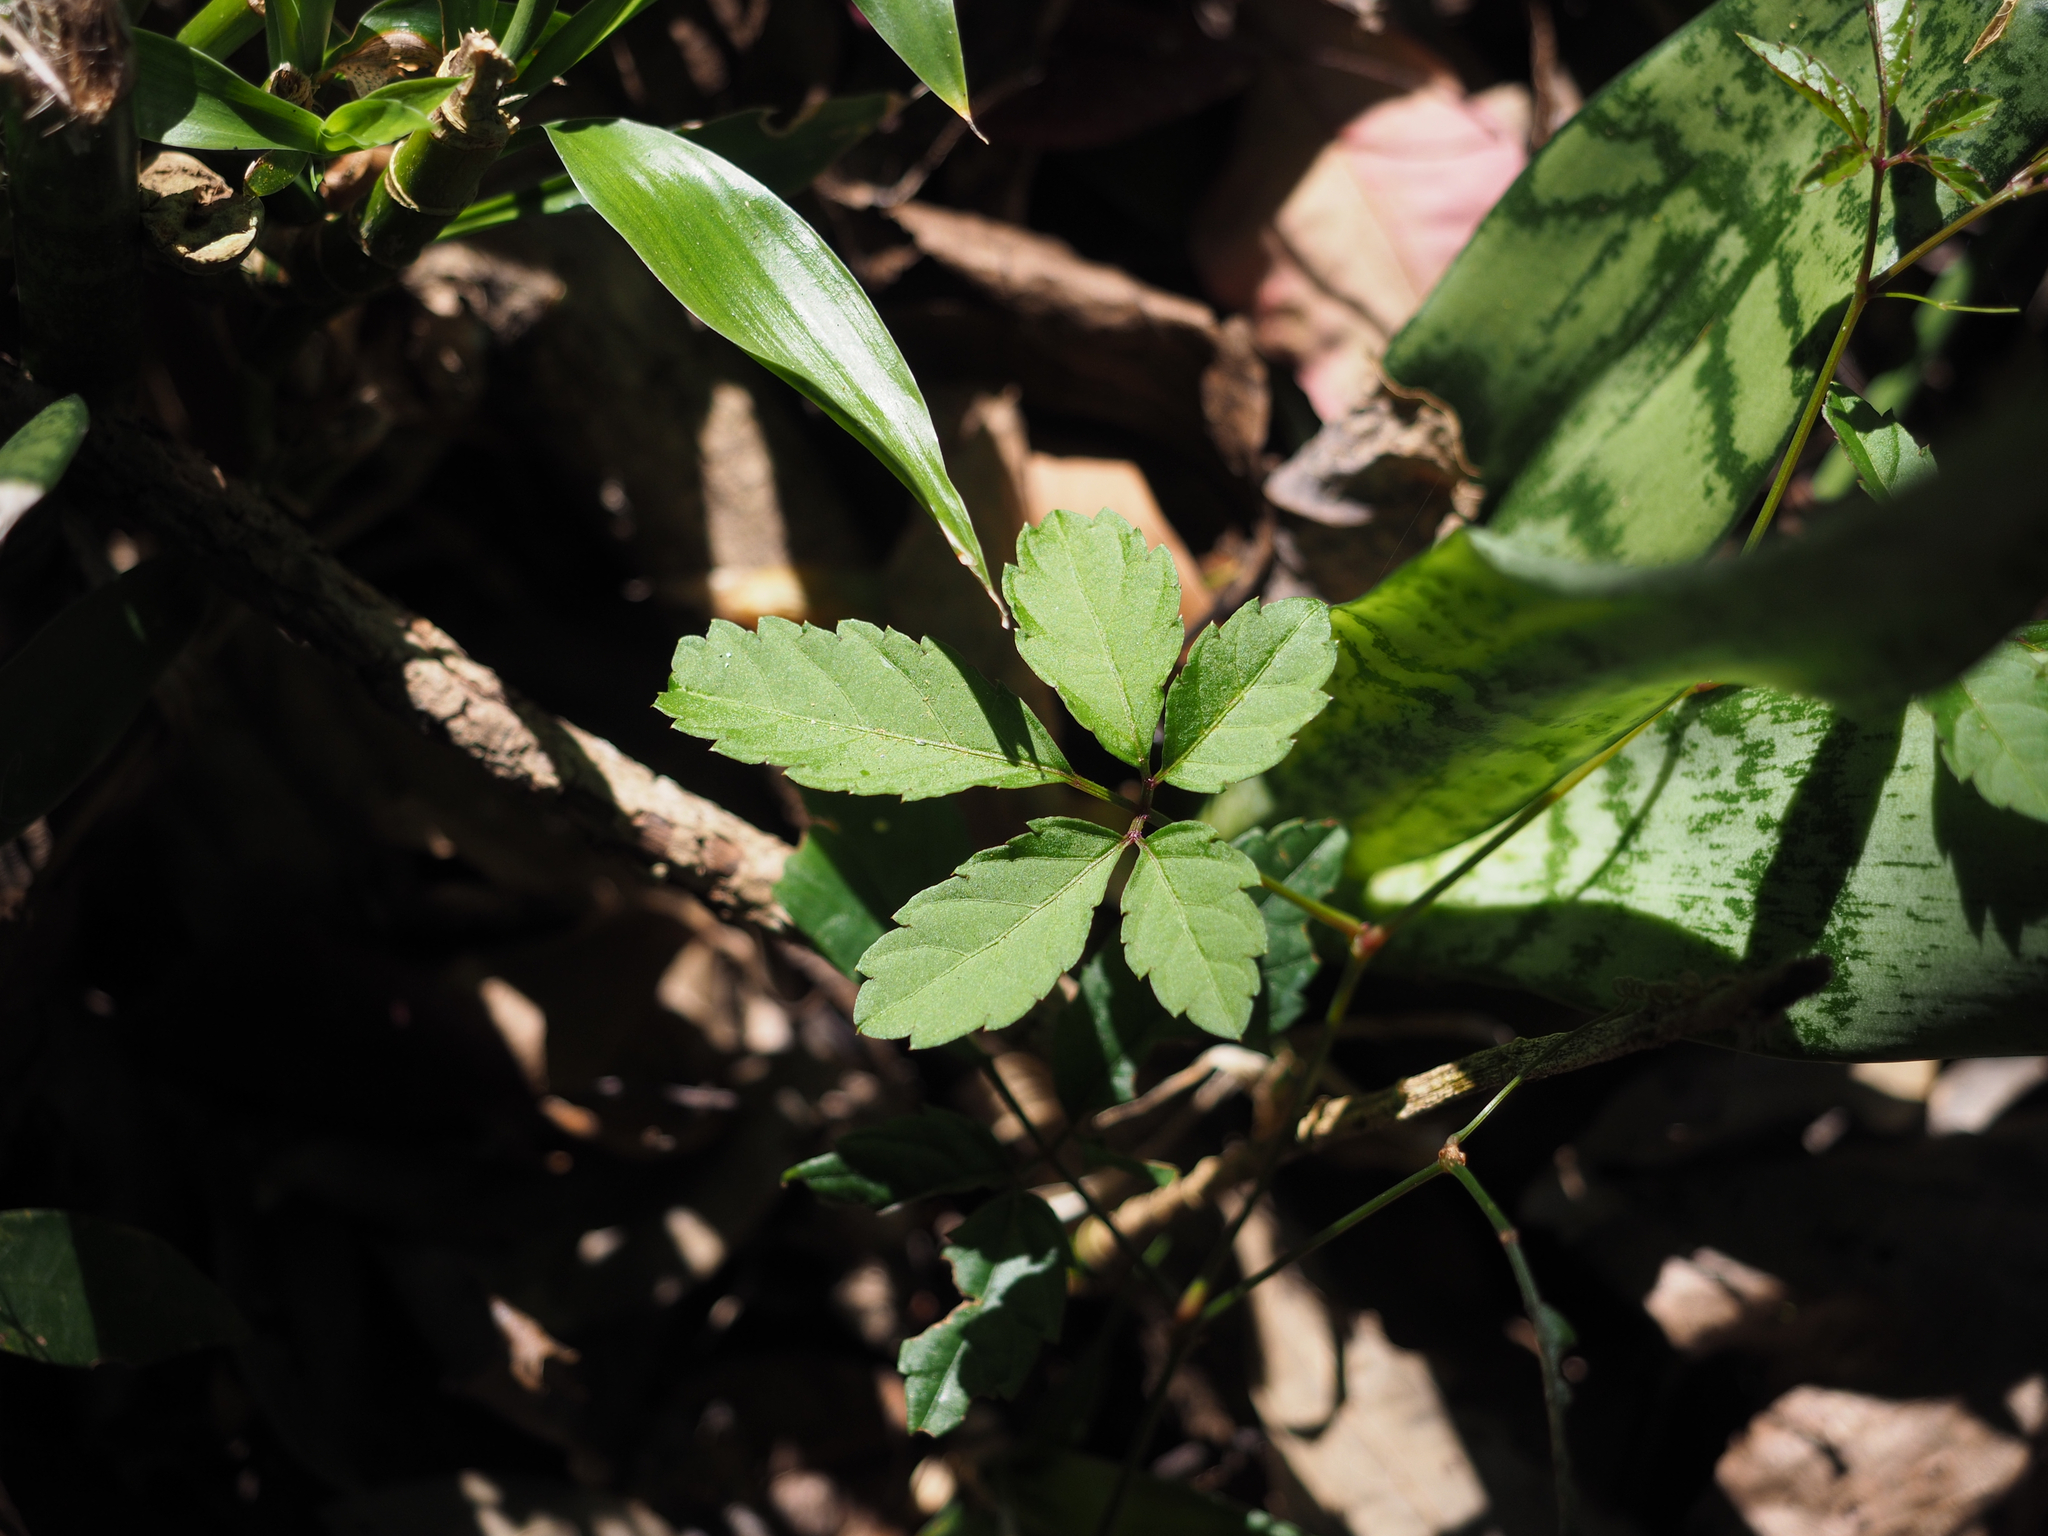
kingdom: Plantae
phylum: Tracheophyta
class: Magnoliopsida
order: Vitales
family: Vitaceae
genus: Causonis
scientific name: Causonis japonica
